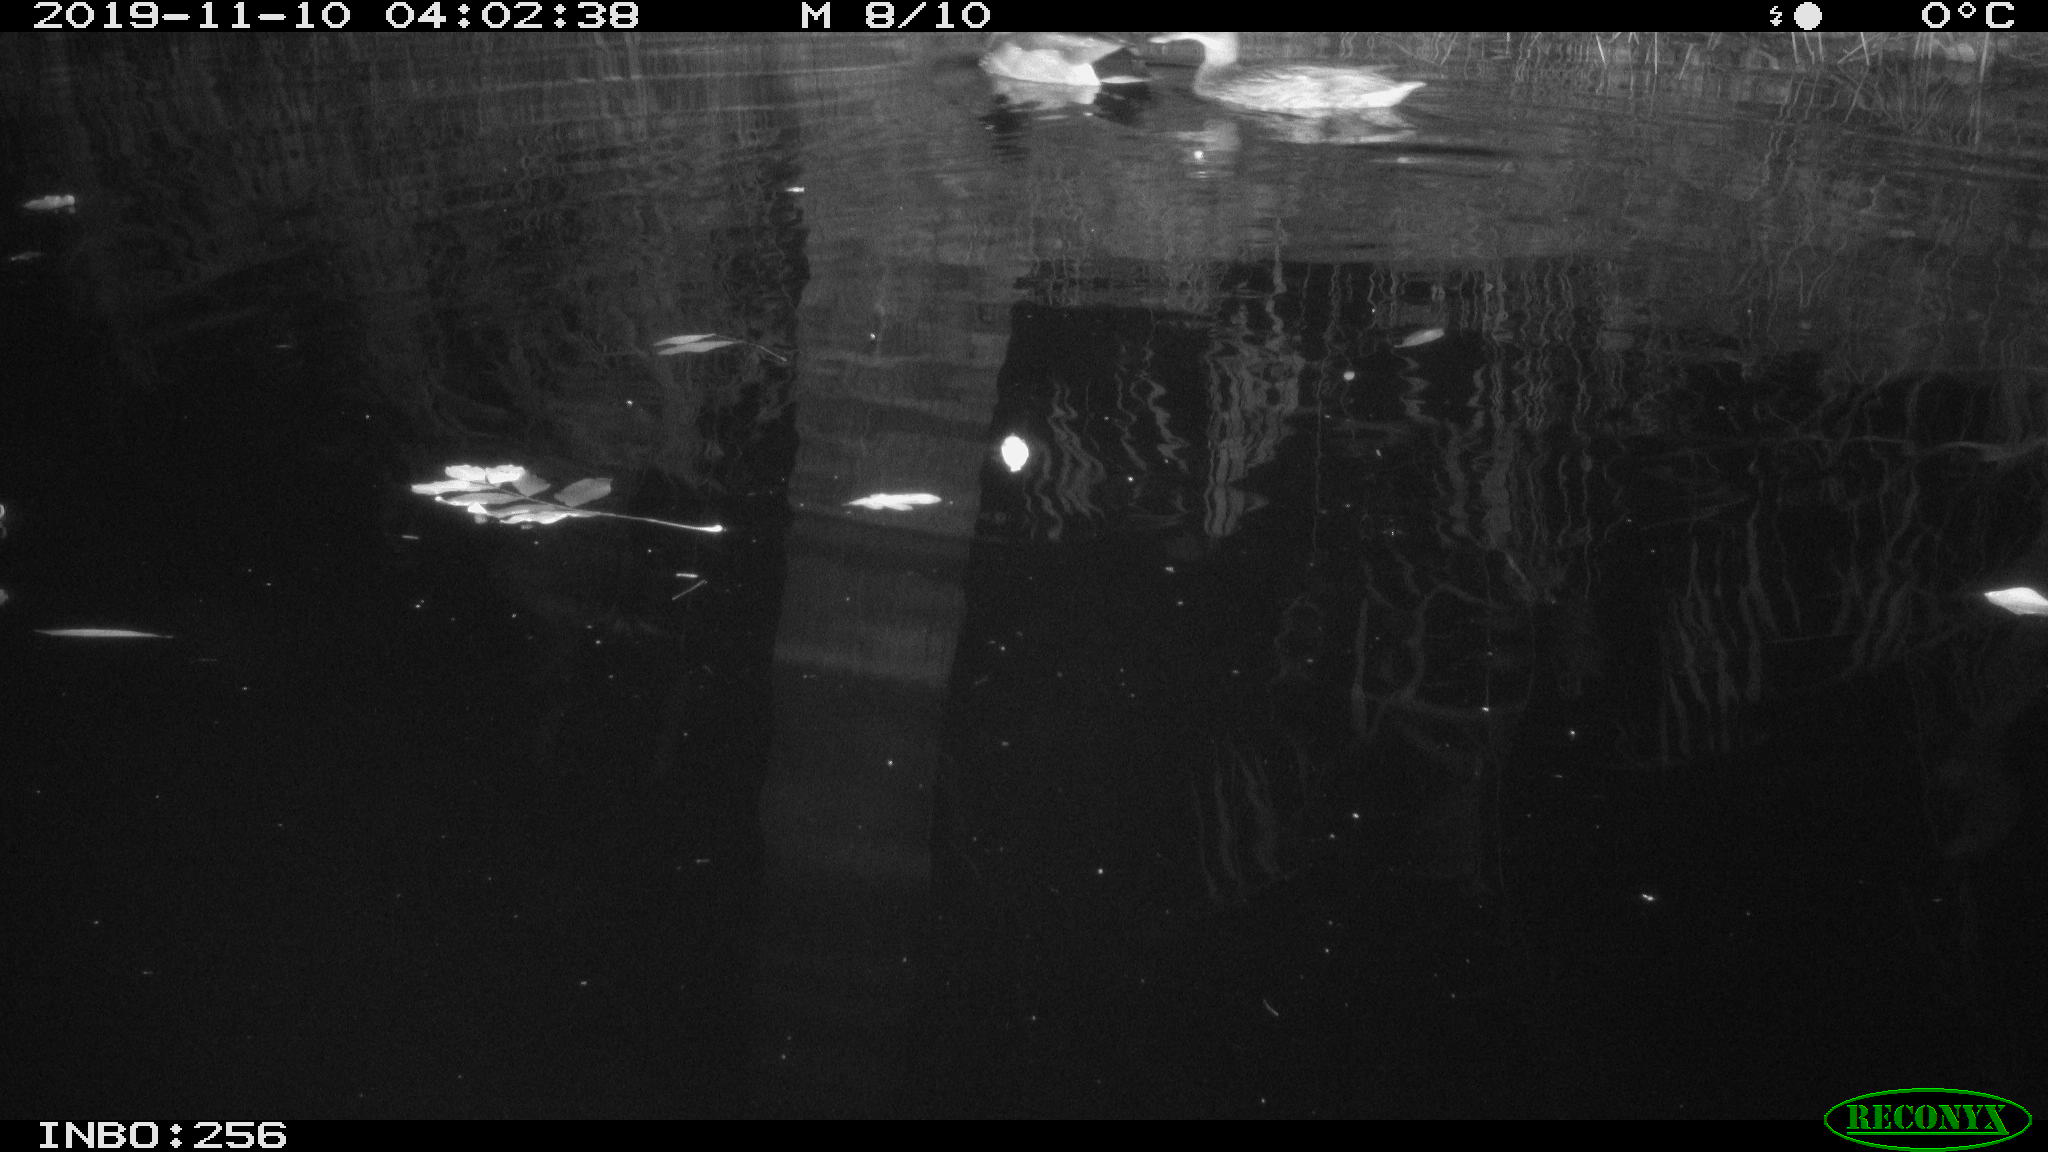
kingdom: Animalia
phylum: Chordata
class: Aves
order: Anseriformes
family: Anatidae
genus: Anas
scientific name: Anas platyrhynchos
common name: Mallard
